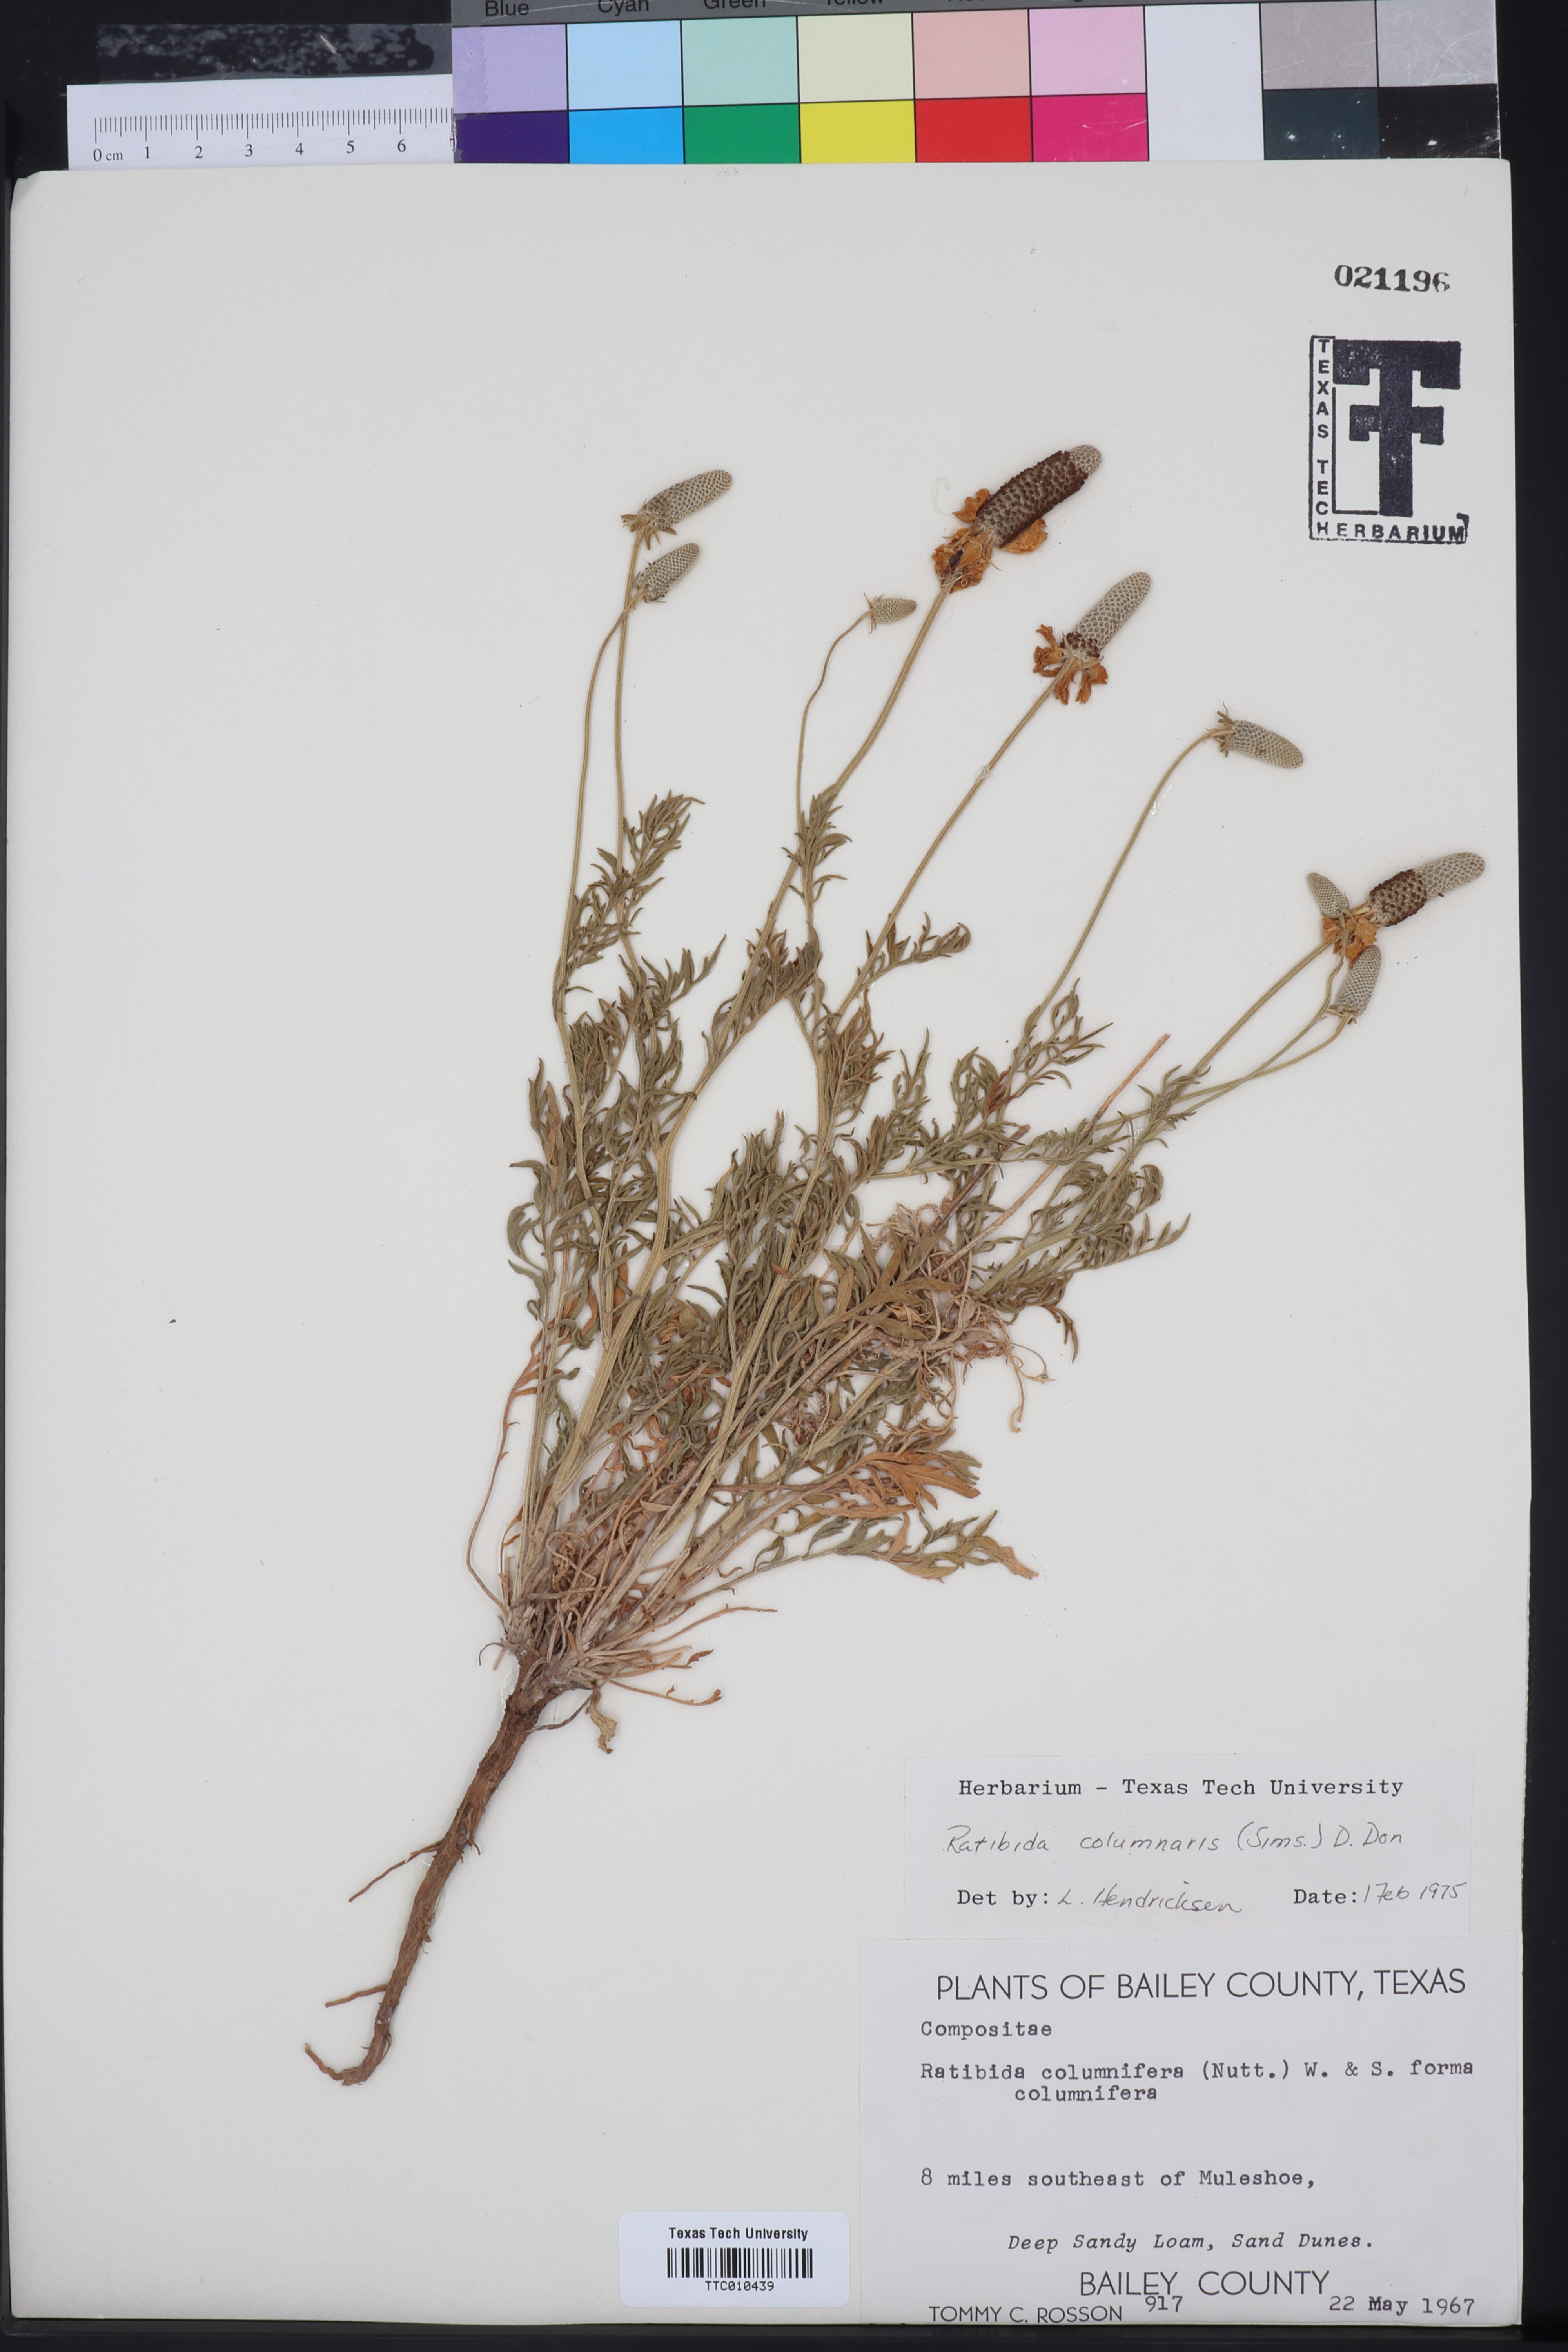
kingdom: Plantae
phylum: Tracheophyta
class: Magnoliopsida
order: Asterales
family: Asteraceae
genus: Ratibida
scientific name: Ratibida columnifera
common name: Prairie coneflower
